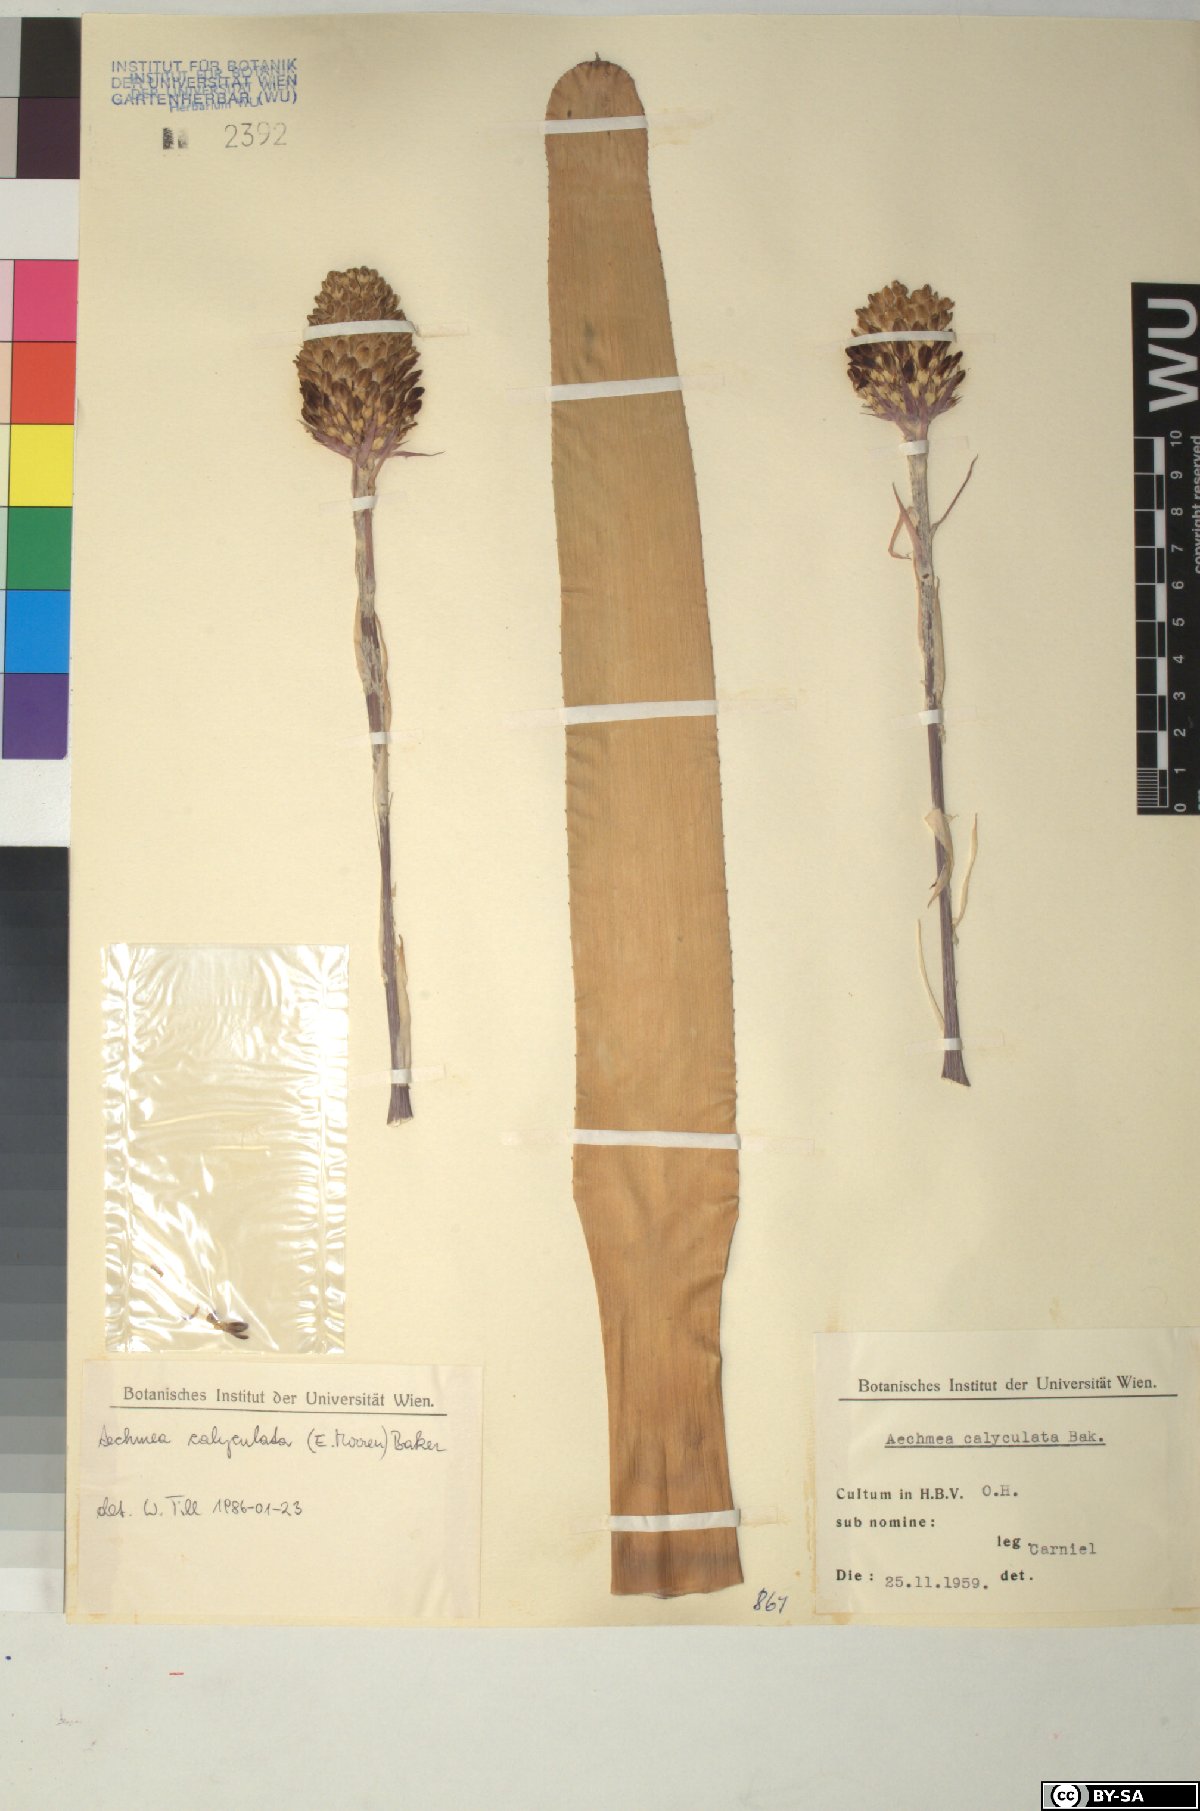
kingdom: Plantae
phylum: Tracheophyta
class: Liliopsida
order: Poales
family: Bromeliaceae
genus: Aechmea
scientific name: Aechmea
